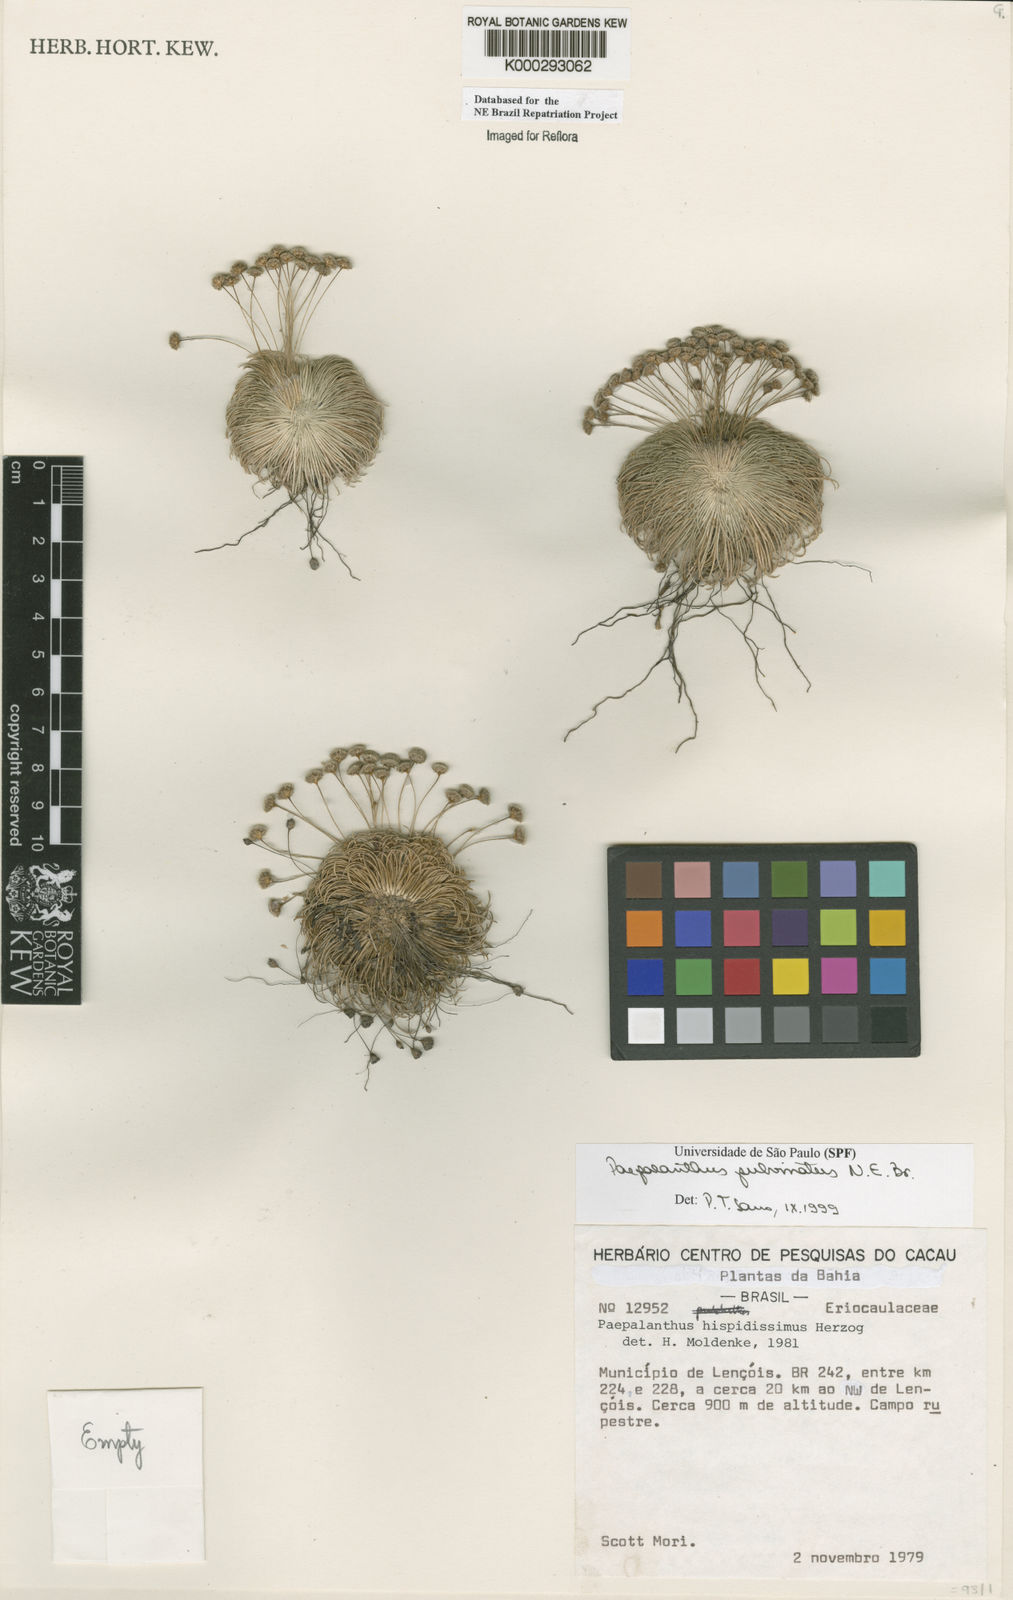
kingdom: Plantae
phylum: Tracheophyta
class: Liliopsida
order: Poales
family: Eriocaulaceae
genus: Paepalanthus
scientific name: Paepalanthus pulvinatus
